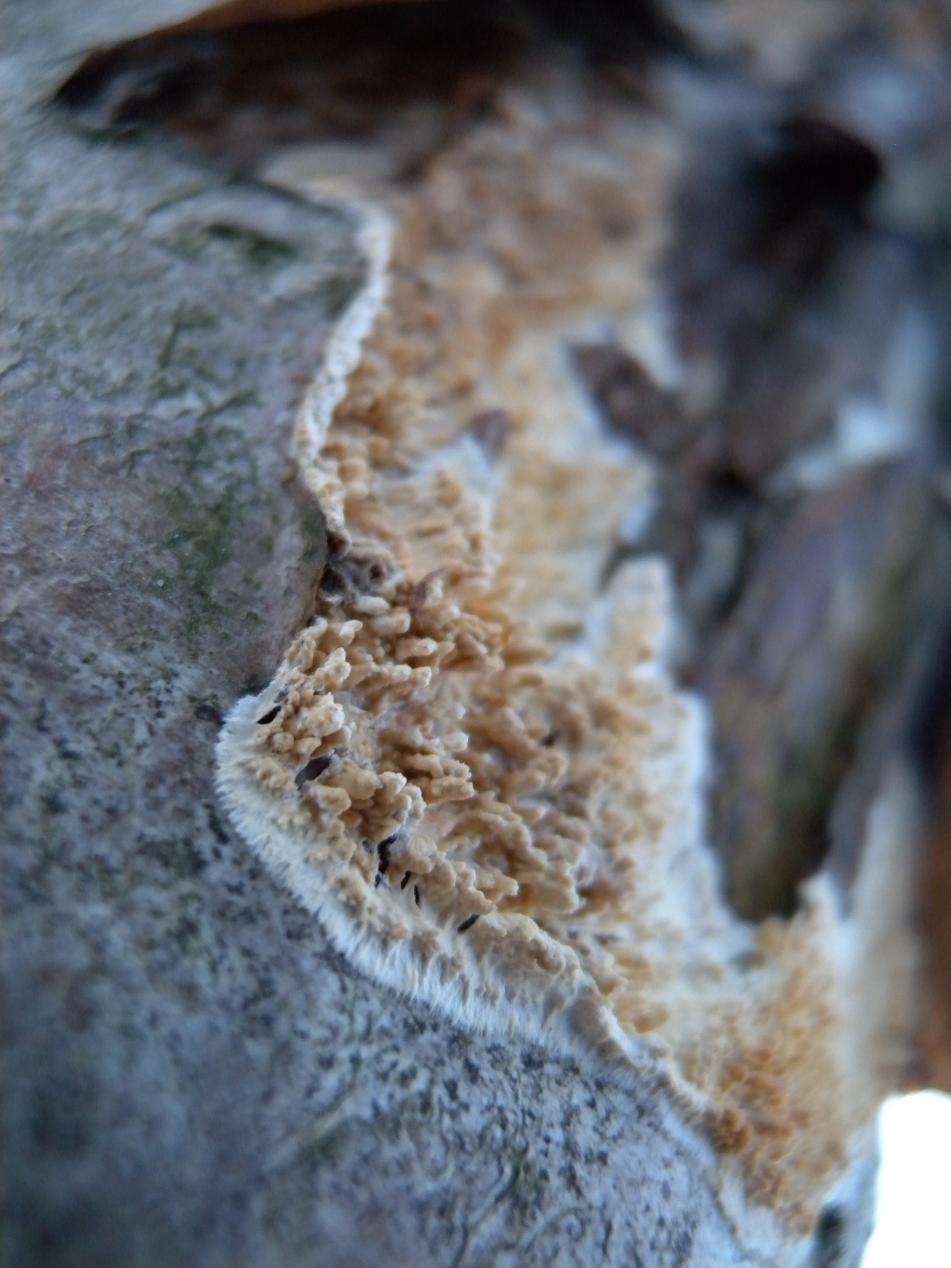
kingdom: Fungi
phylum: Basidiomycota
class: Agaricomycetes
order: Hymenochaetales
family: Schizoporaceae
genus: Xylodon
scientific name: Xylodon radula
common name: grovtandet kalkskind
